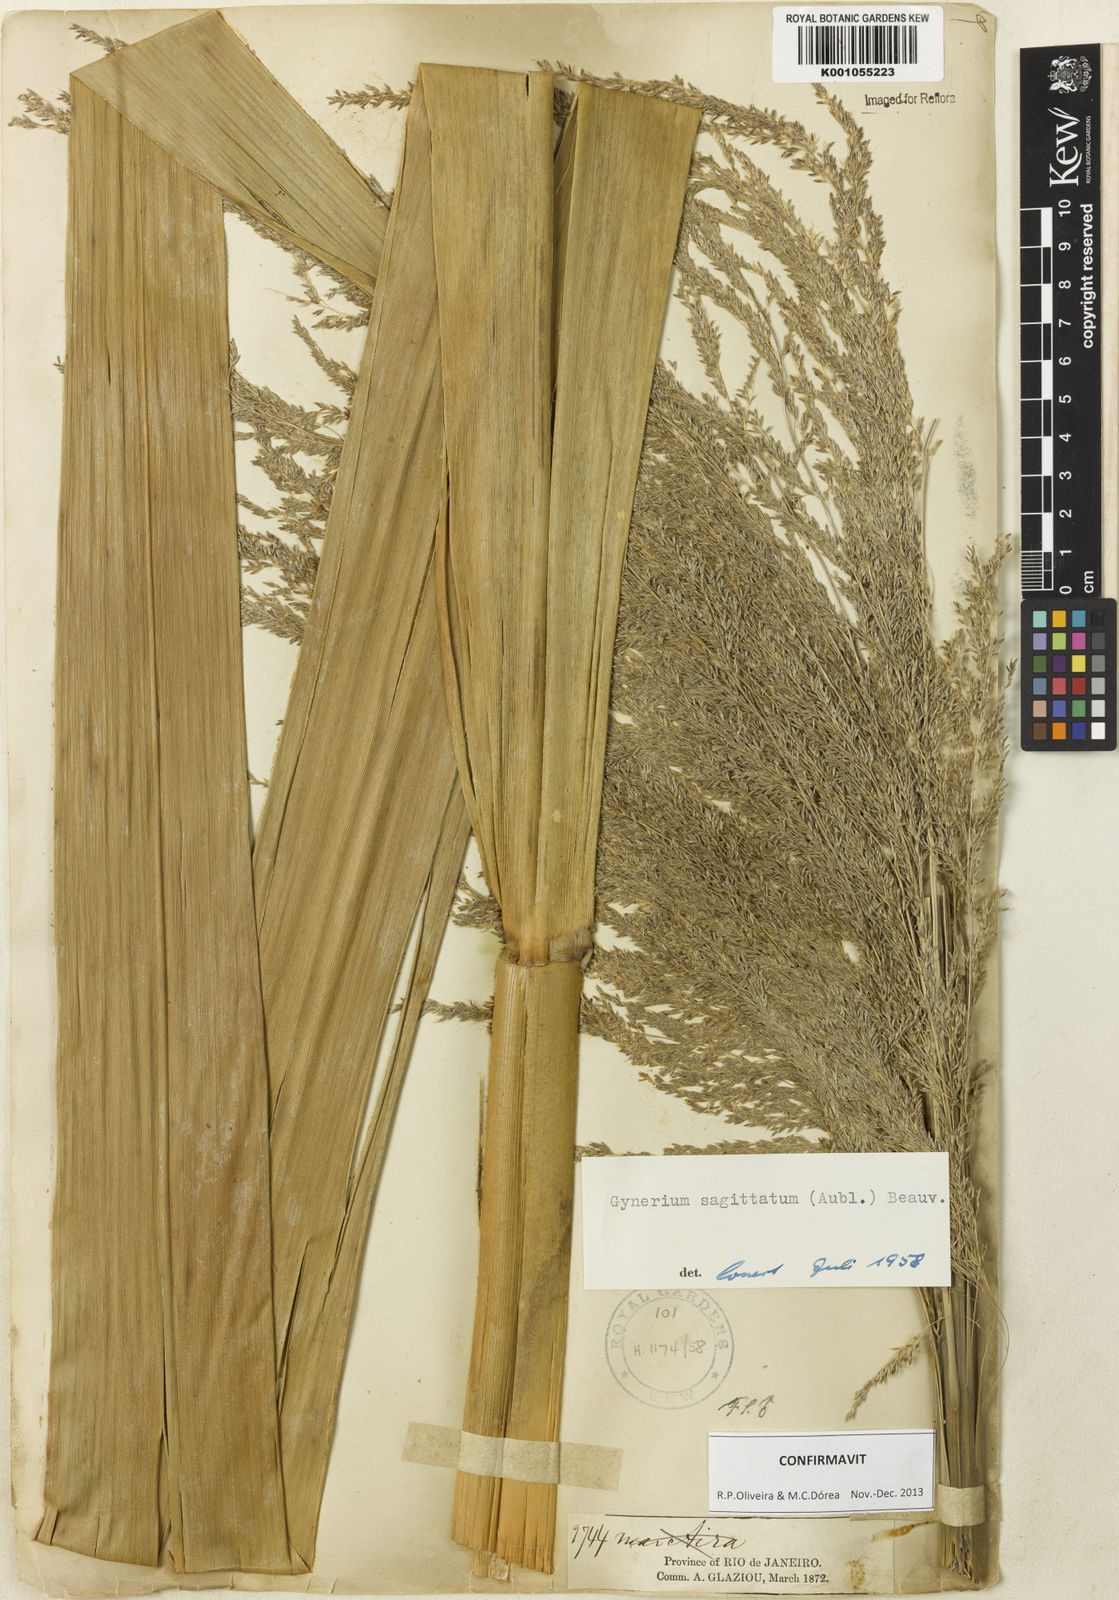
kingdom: Plantae
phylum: Tracheophyta
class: Liliopsida
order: Poales
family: Poaceae
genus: Gynerium
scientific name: Gynerium sagittatum
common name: Wild cane
